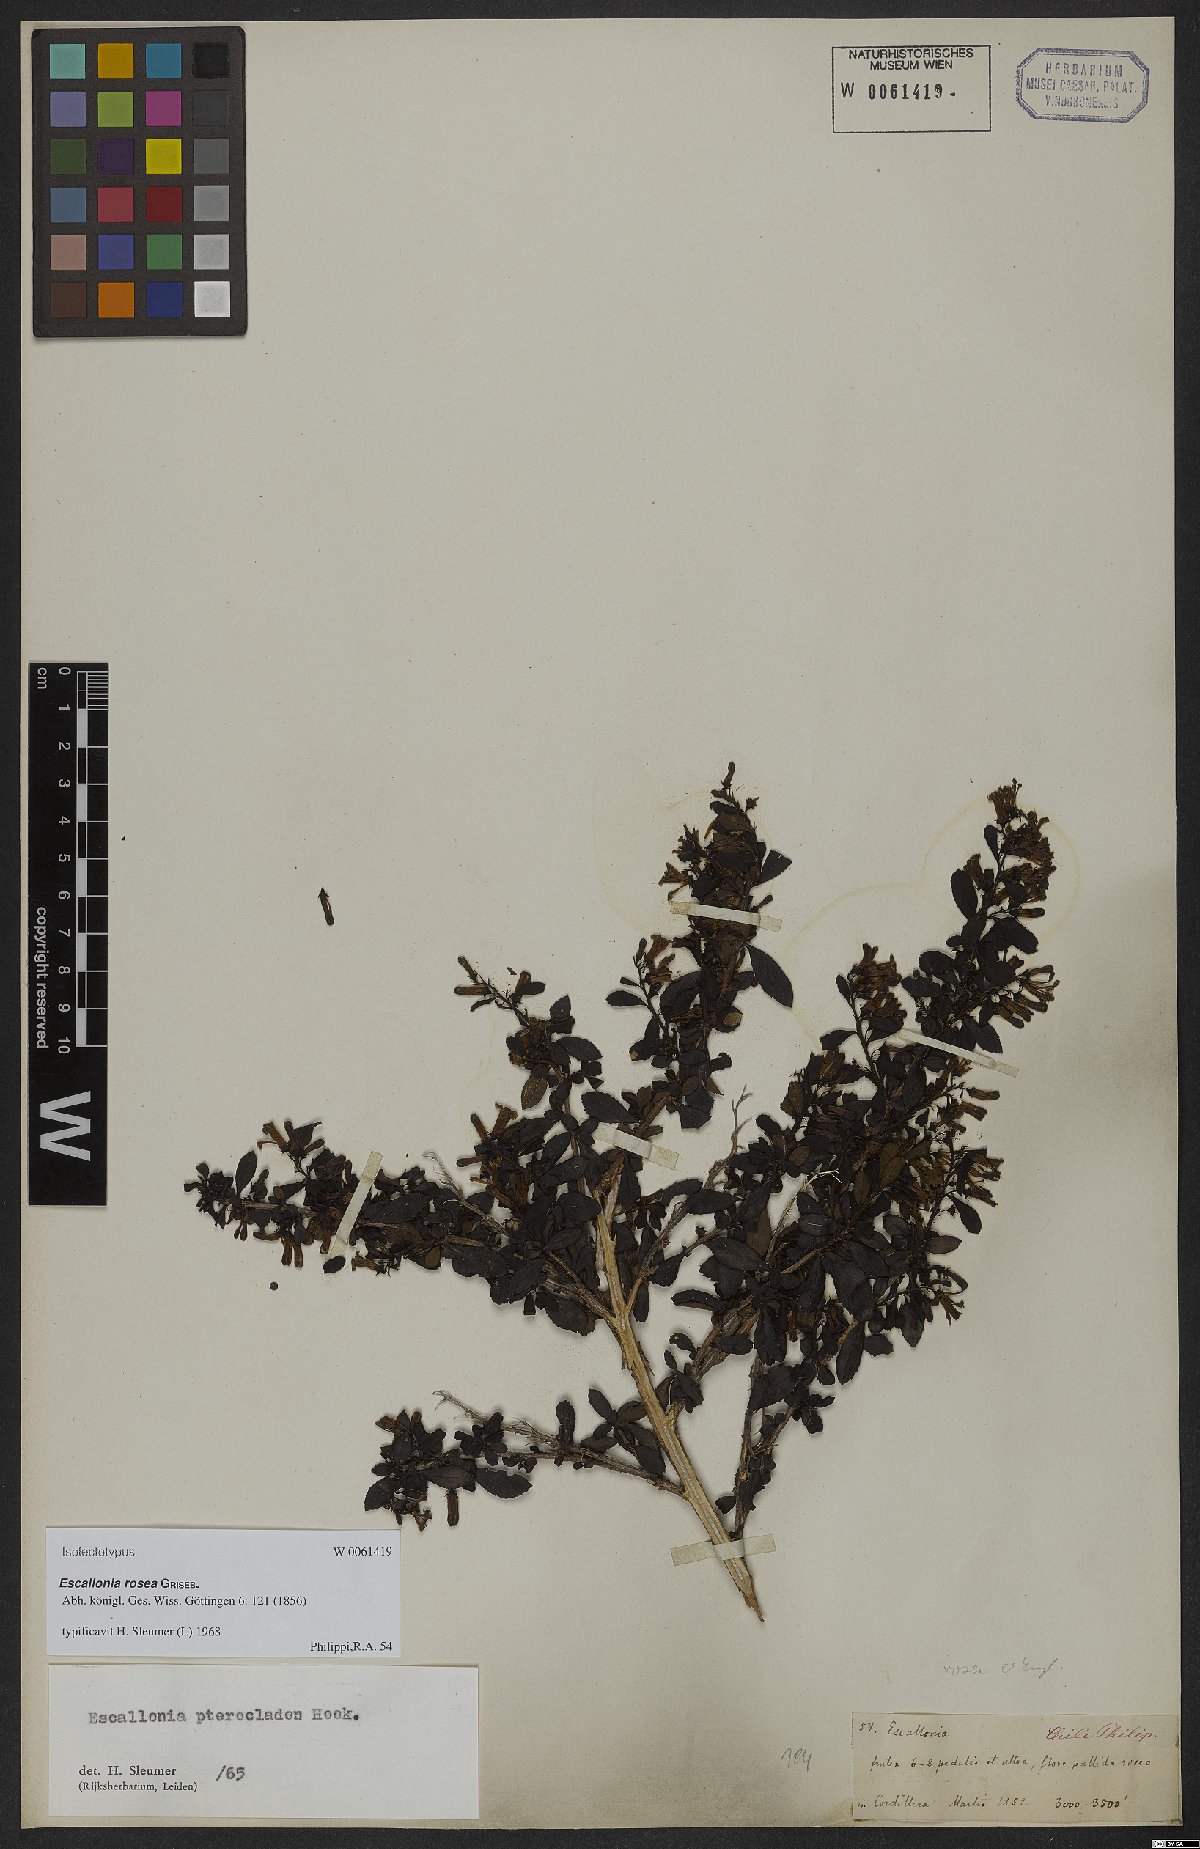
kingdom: Plantae
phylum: Tracheophyta
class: Magnoliopsida
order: Escalloniales
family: Escalloniaceae
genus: Escallonia
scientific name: Escallonia rosea
